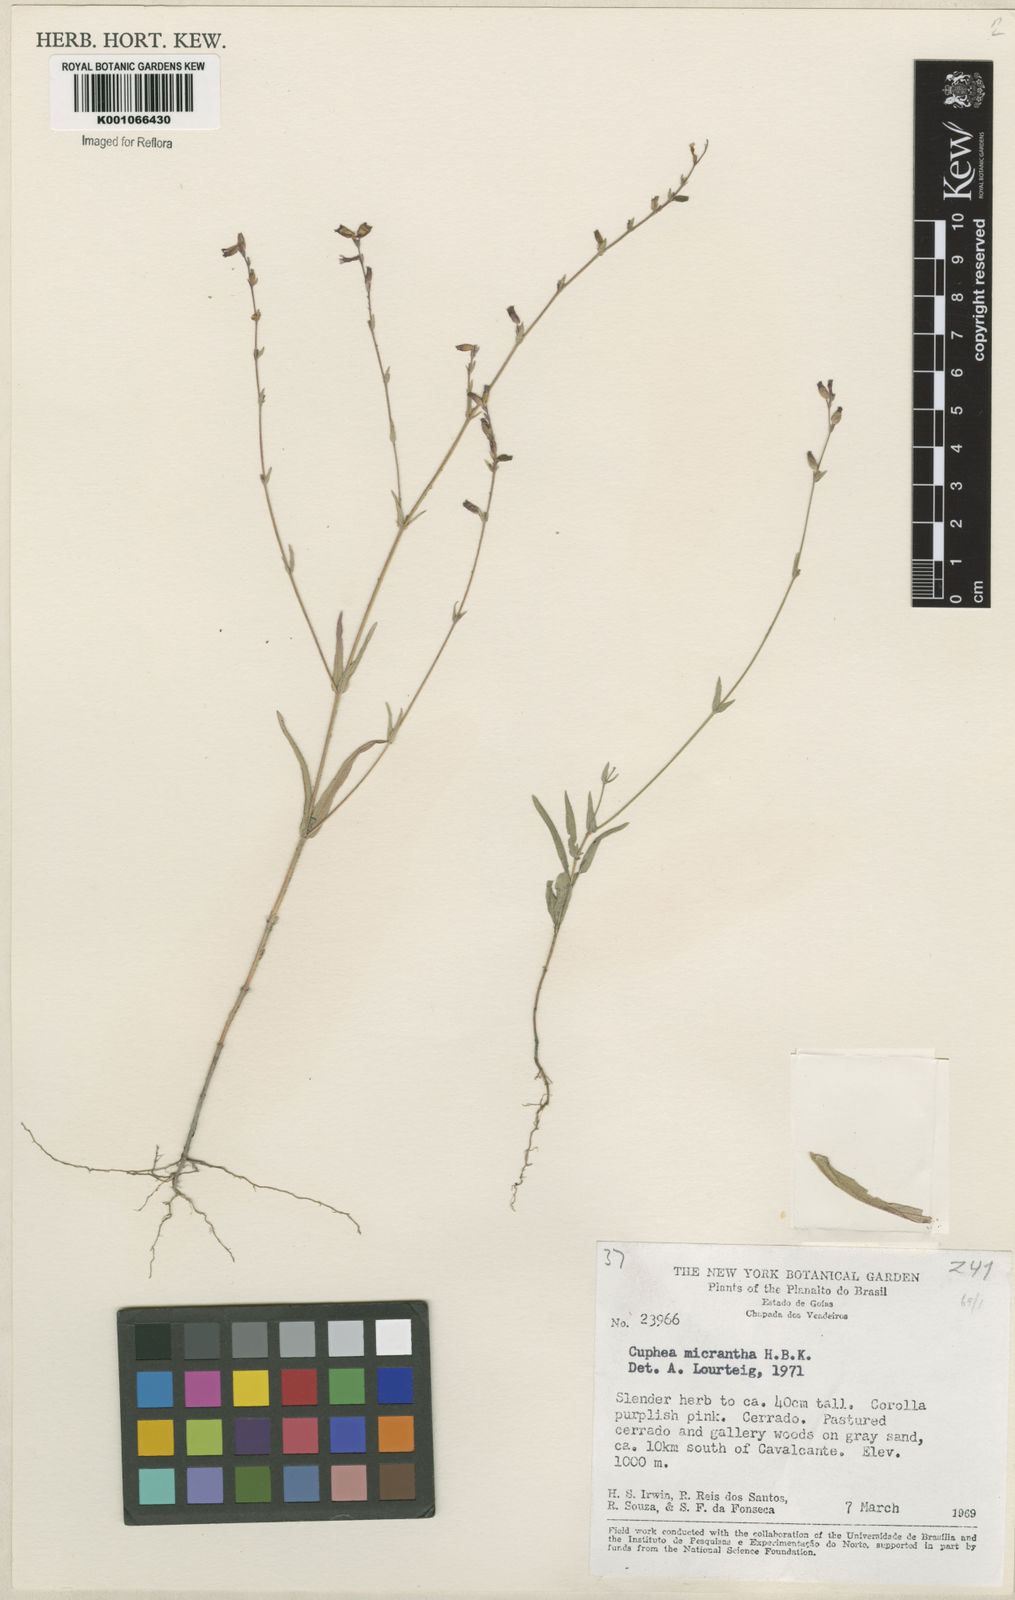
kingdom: Plantae
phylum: Tracheophyta
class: Magnoliopsida
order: Myrtales
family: Lythraceae
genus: Cuphea
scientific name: Cuphea micrantha
